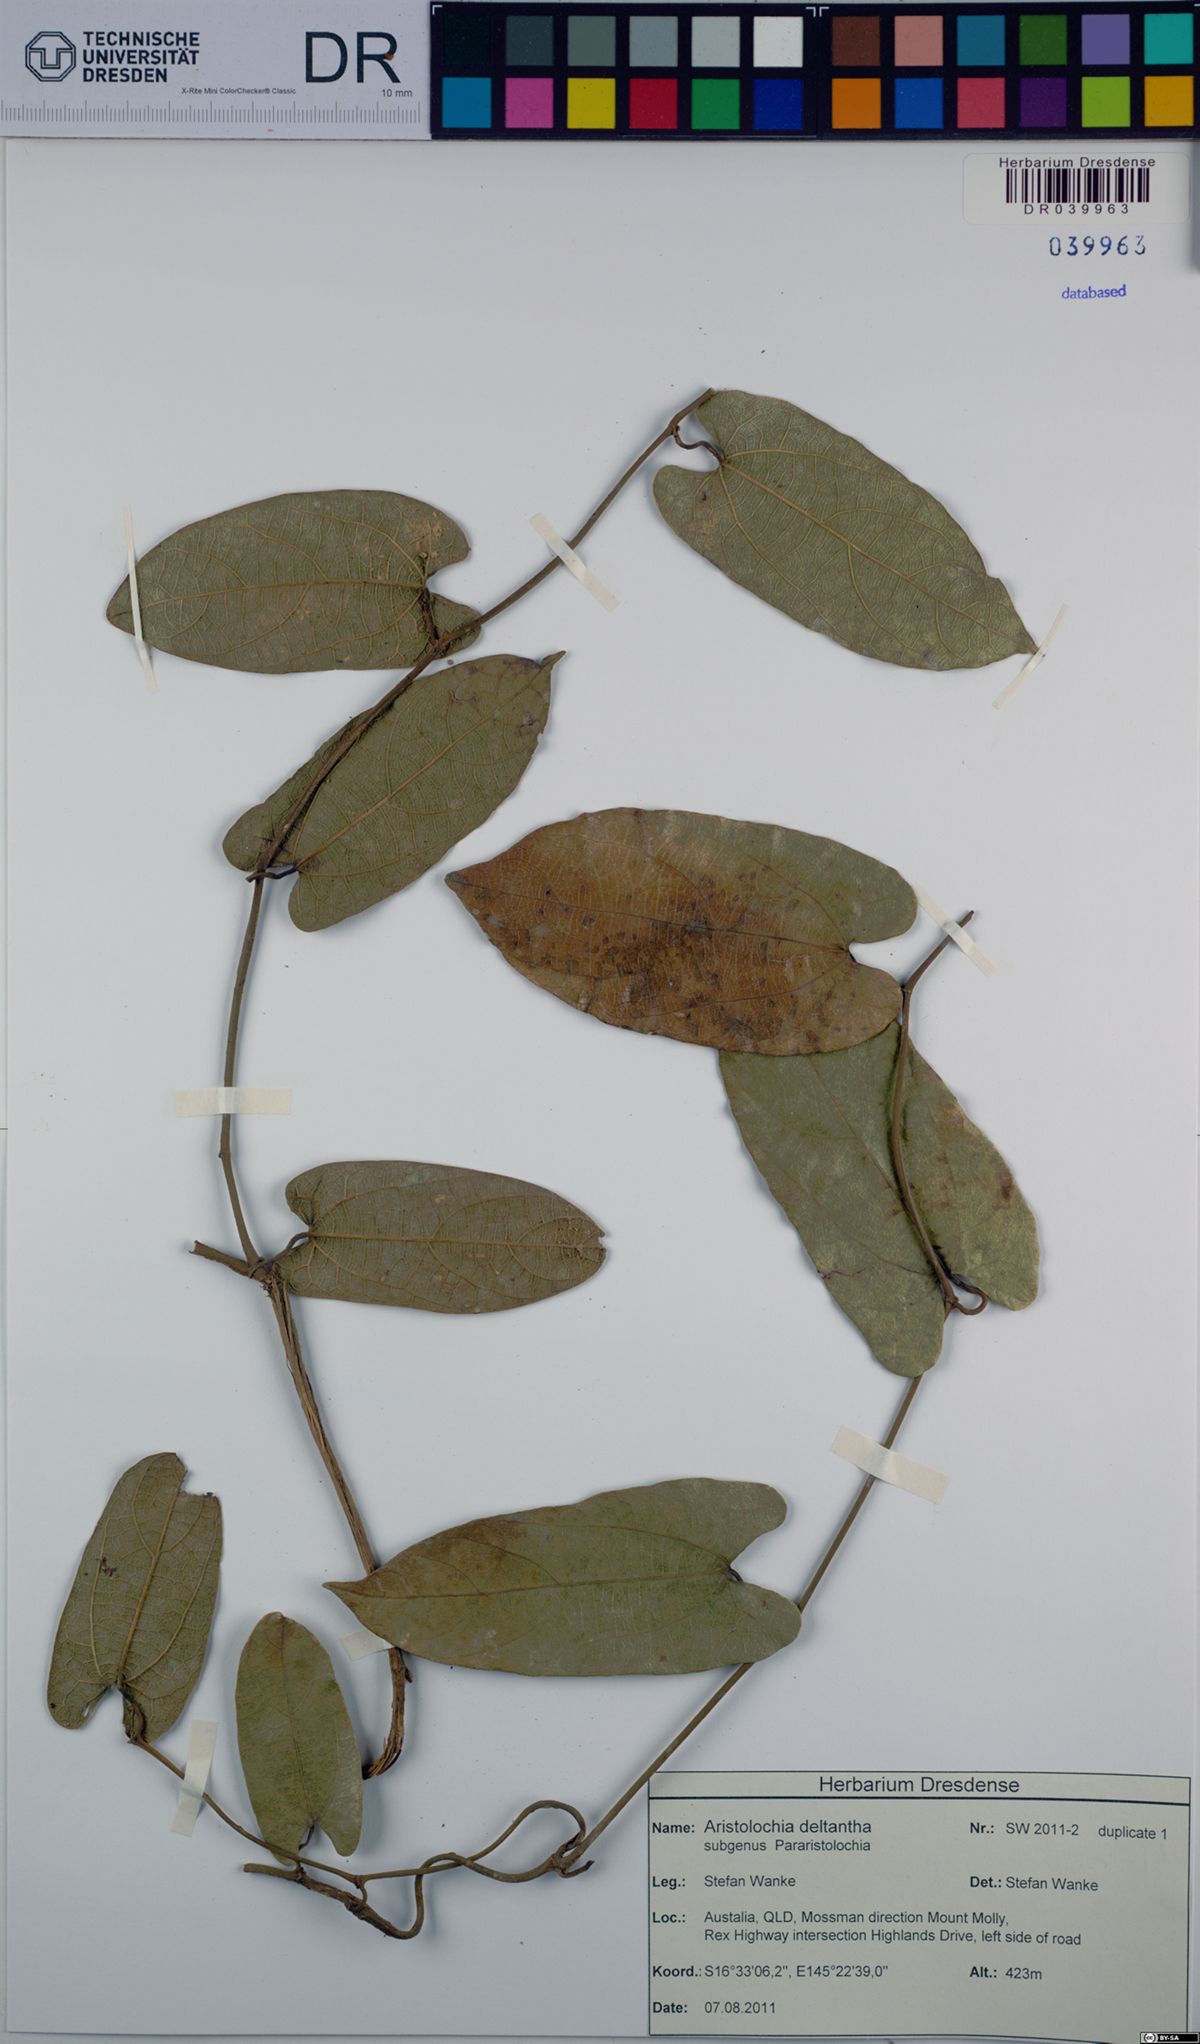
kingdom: Plantae
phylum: Tracheophyta
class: Magnoliopsida
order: Piperales
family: Aristolochiaceae
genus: Aristolochia
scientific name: Aristolochia deltantha
